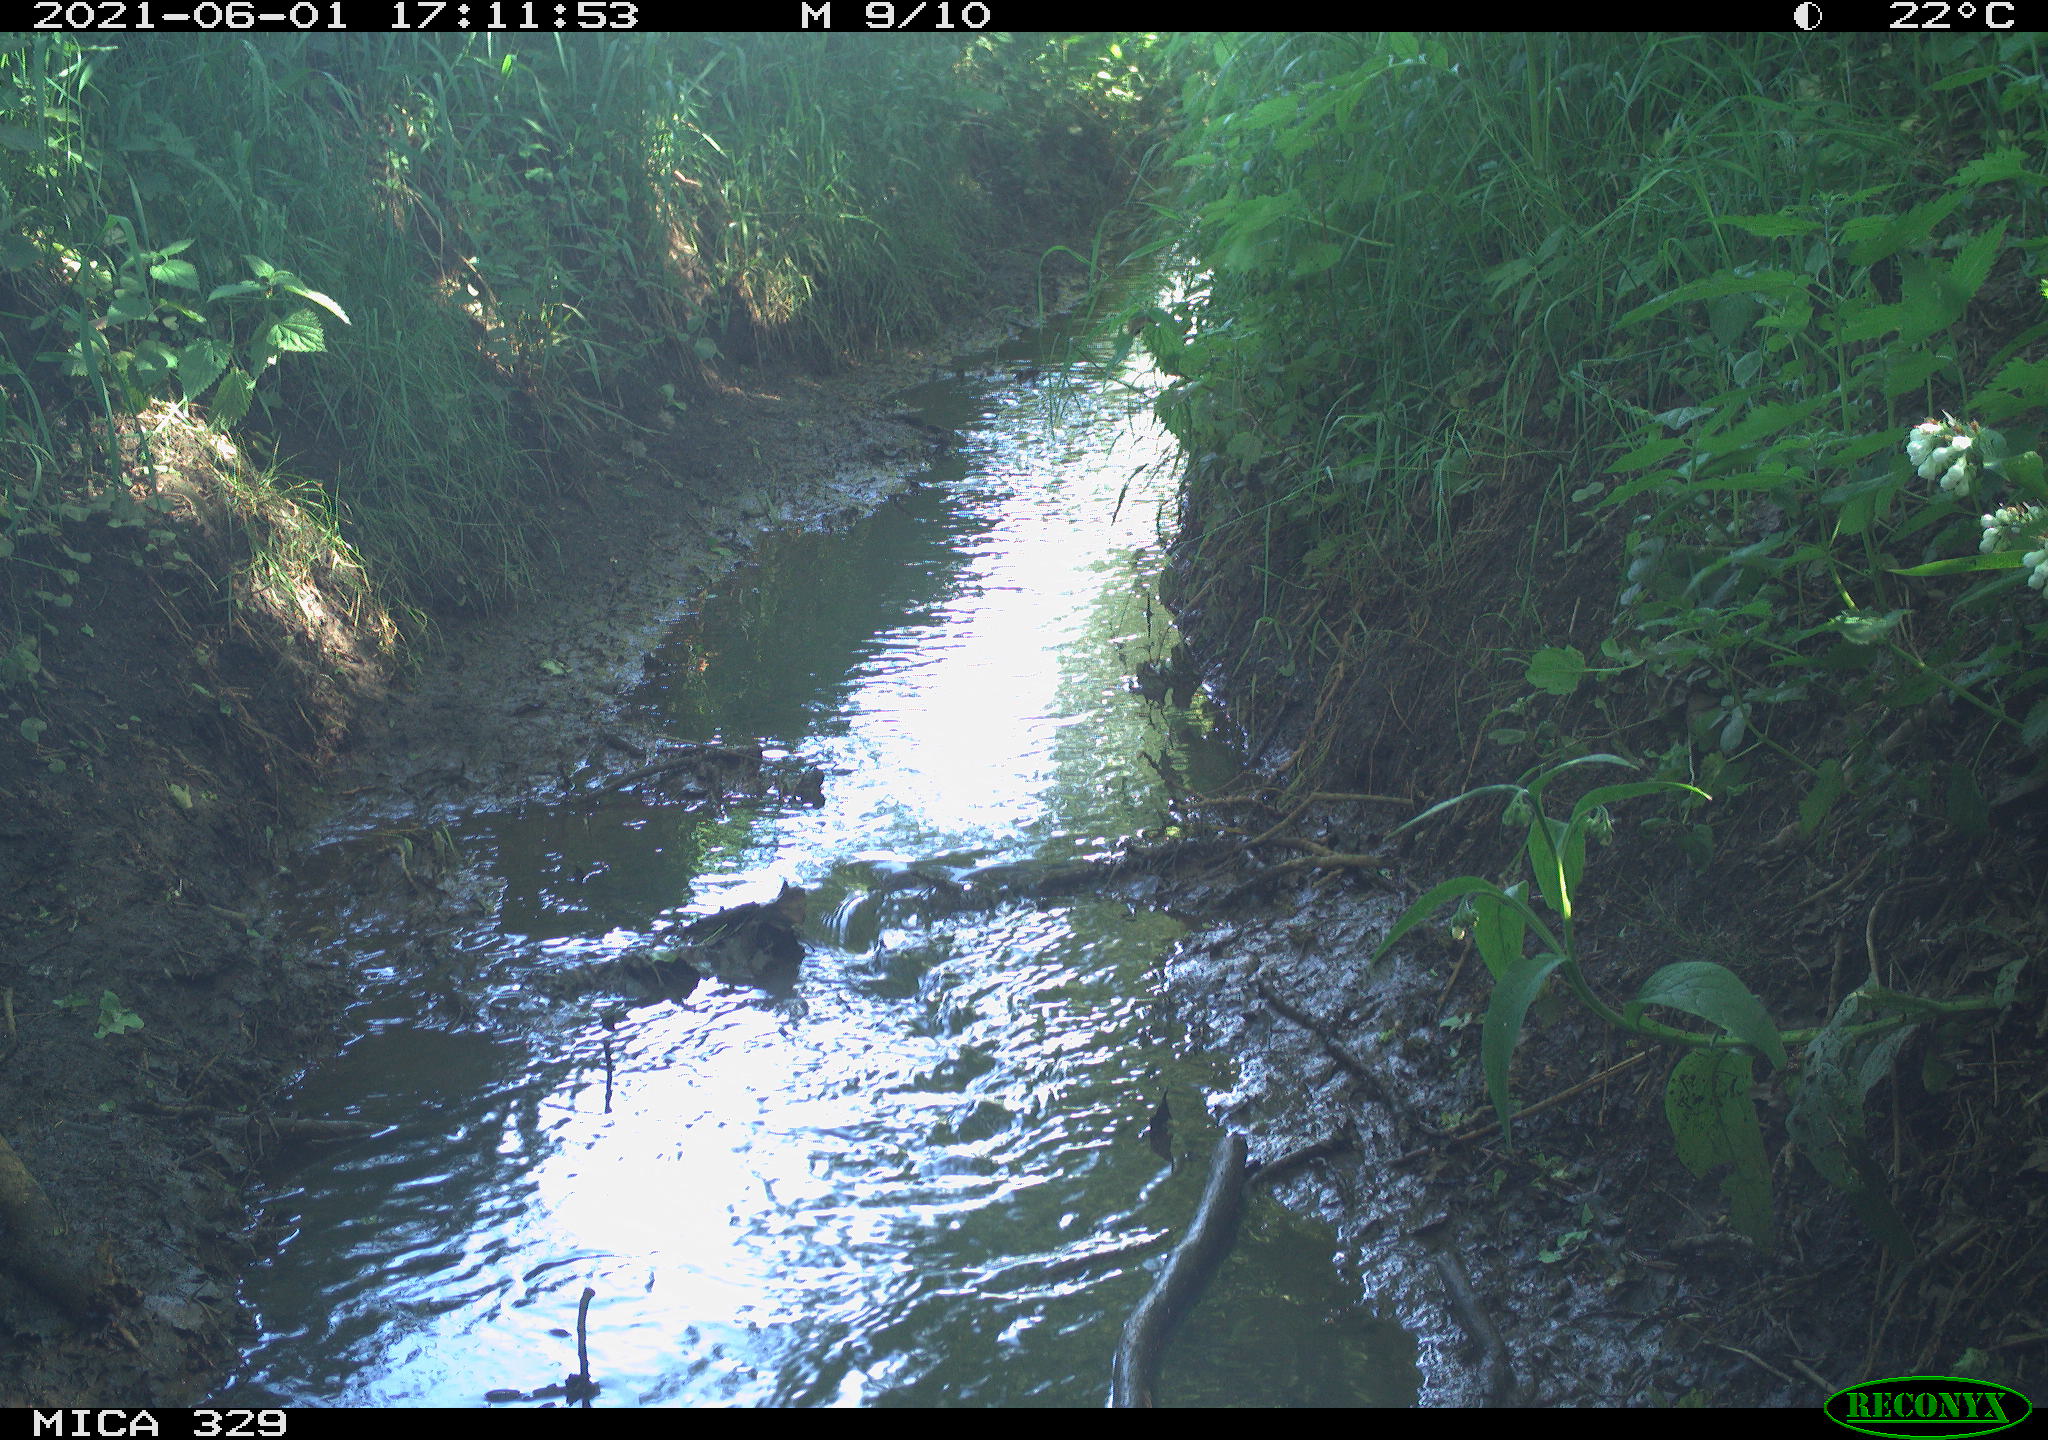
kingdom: Animalia
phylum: Chordata
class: Aves
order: Gruiformes
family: Rallidae
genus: Gallinula
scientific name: Gallinula chloropus
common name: Common moorhen
